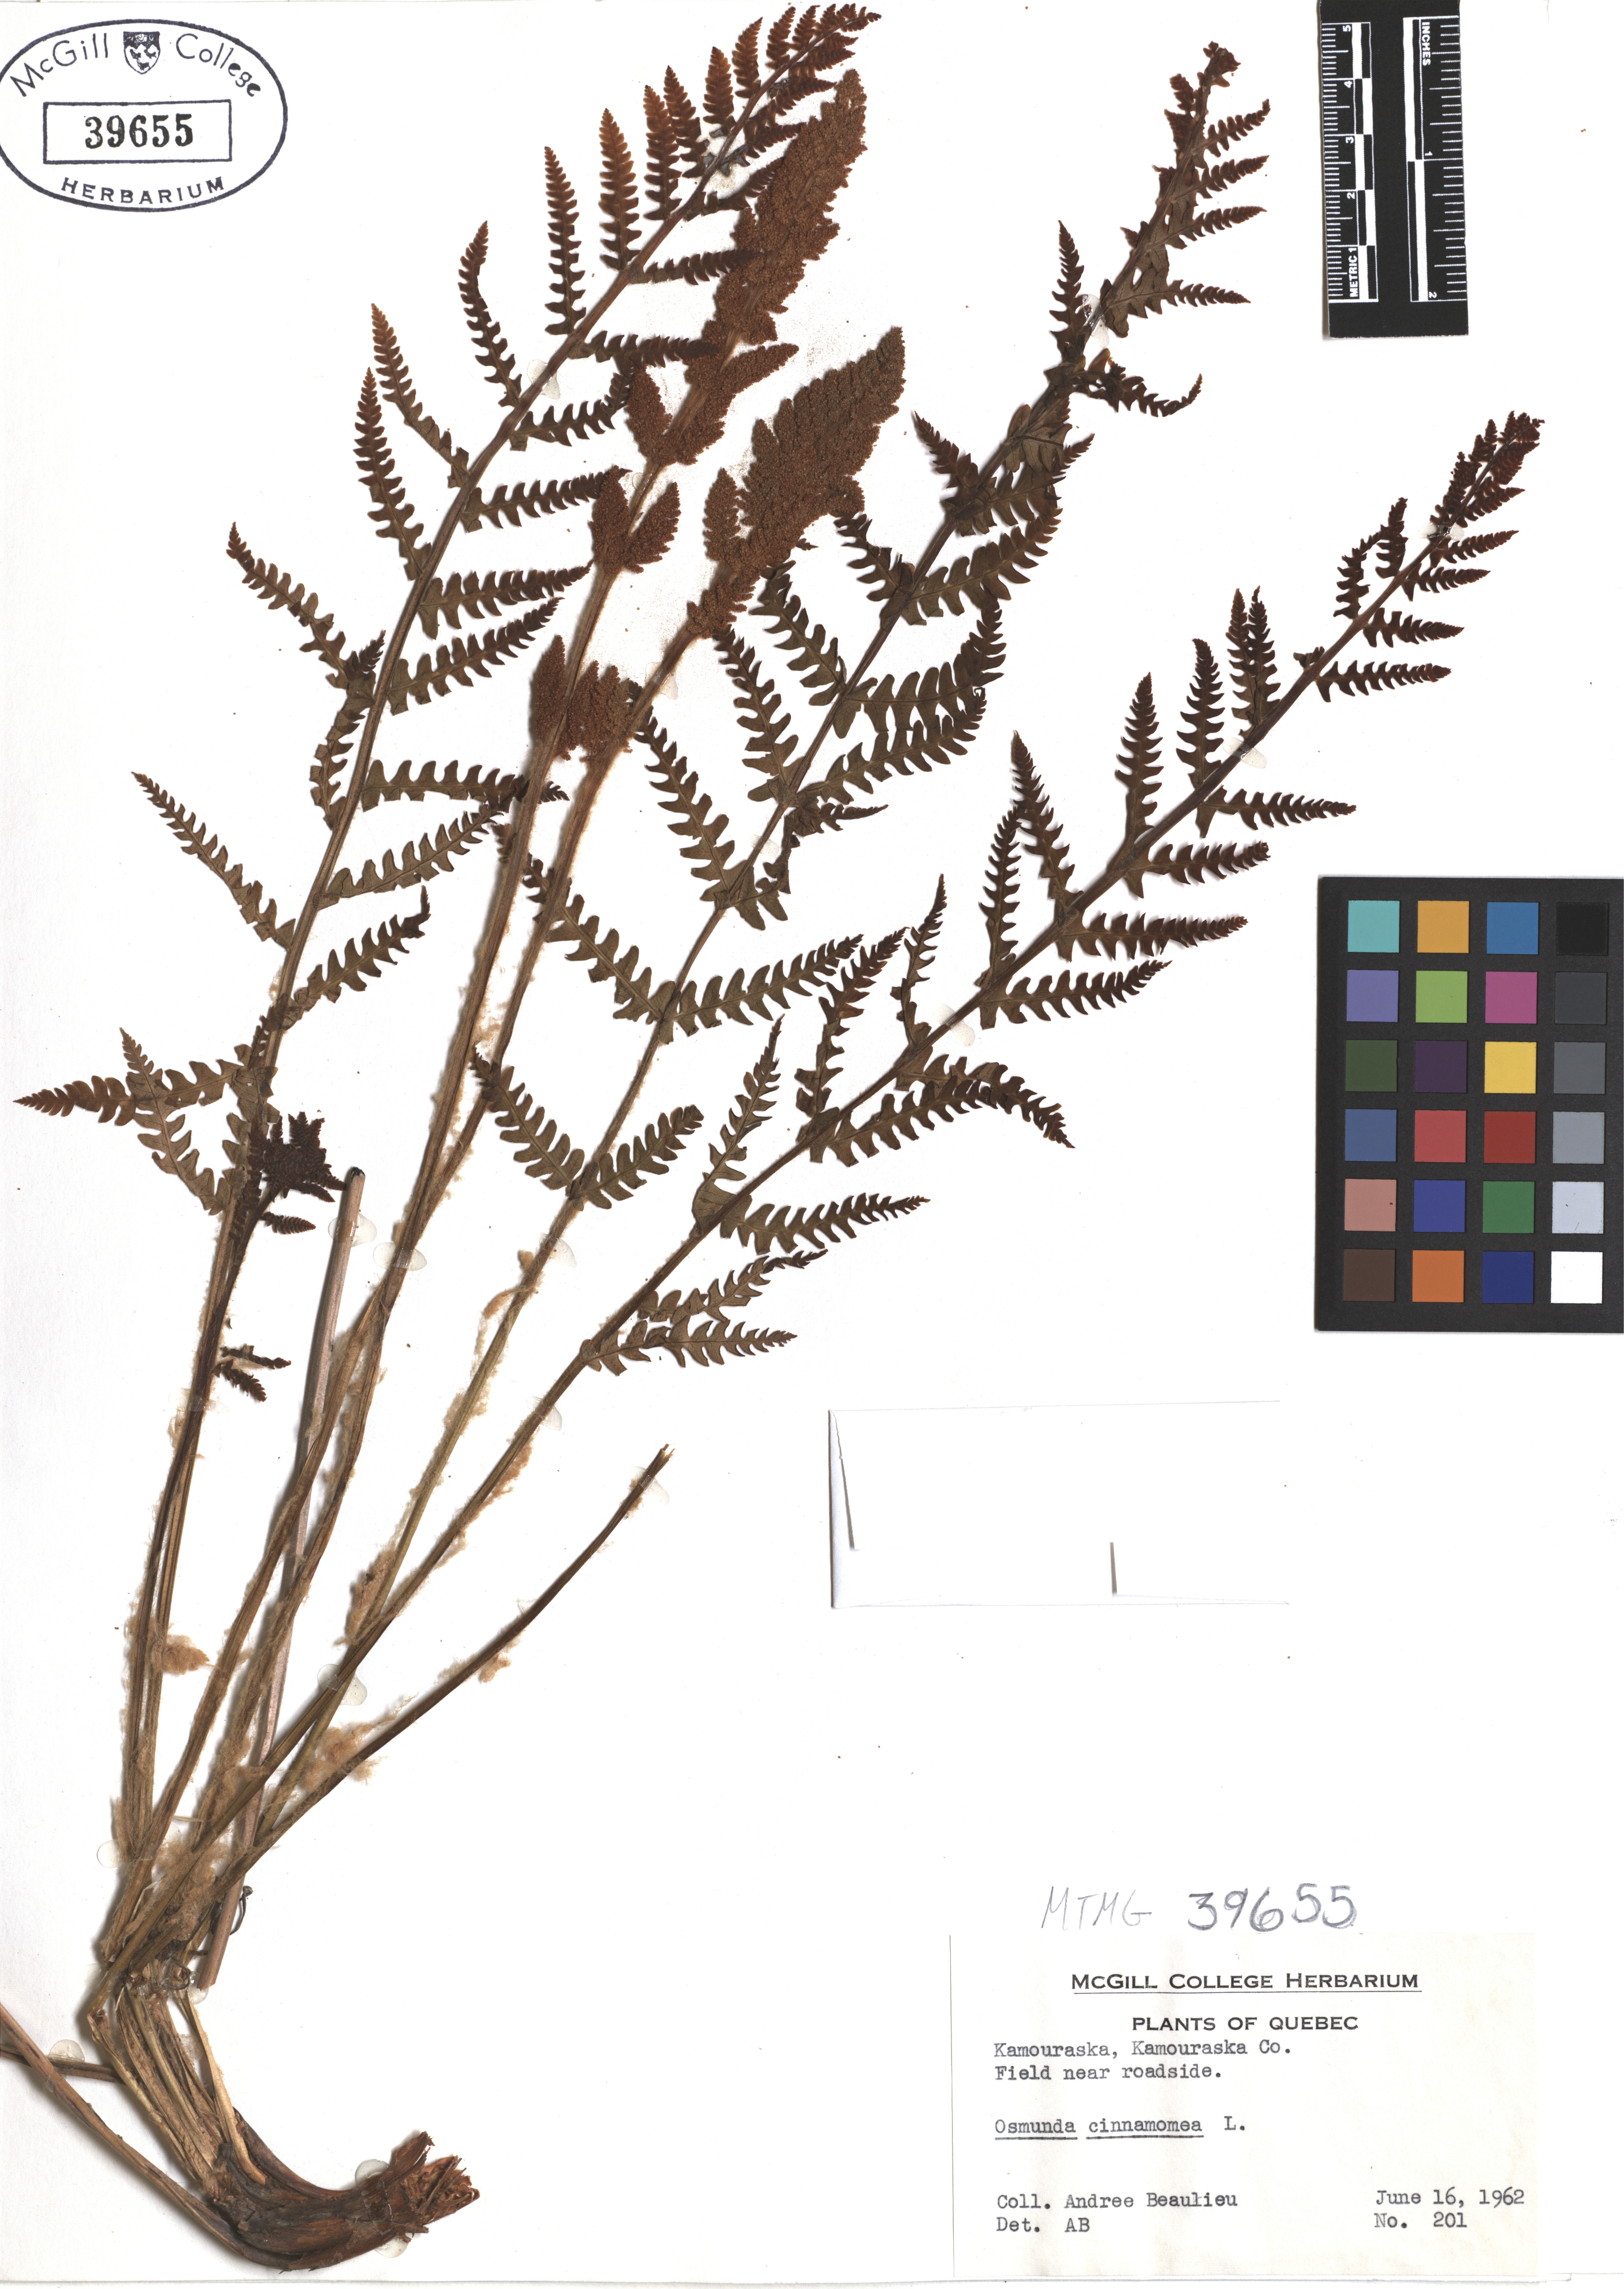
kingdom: Plantae
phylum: Tracheophyta
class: Polypodiopsida
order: Osmundales
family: Osmundaceae
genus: Osmundastrum
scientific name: Osmundastrum cinnamomeum
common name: Cinnamon fern
